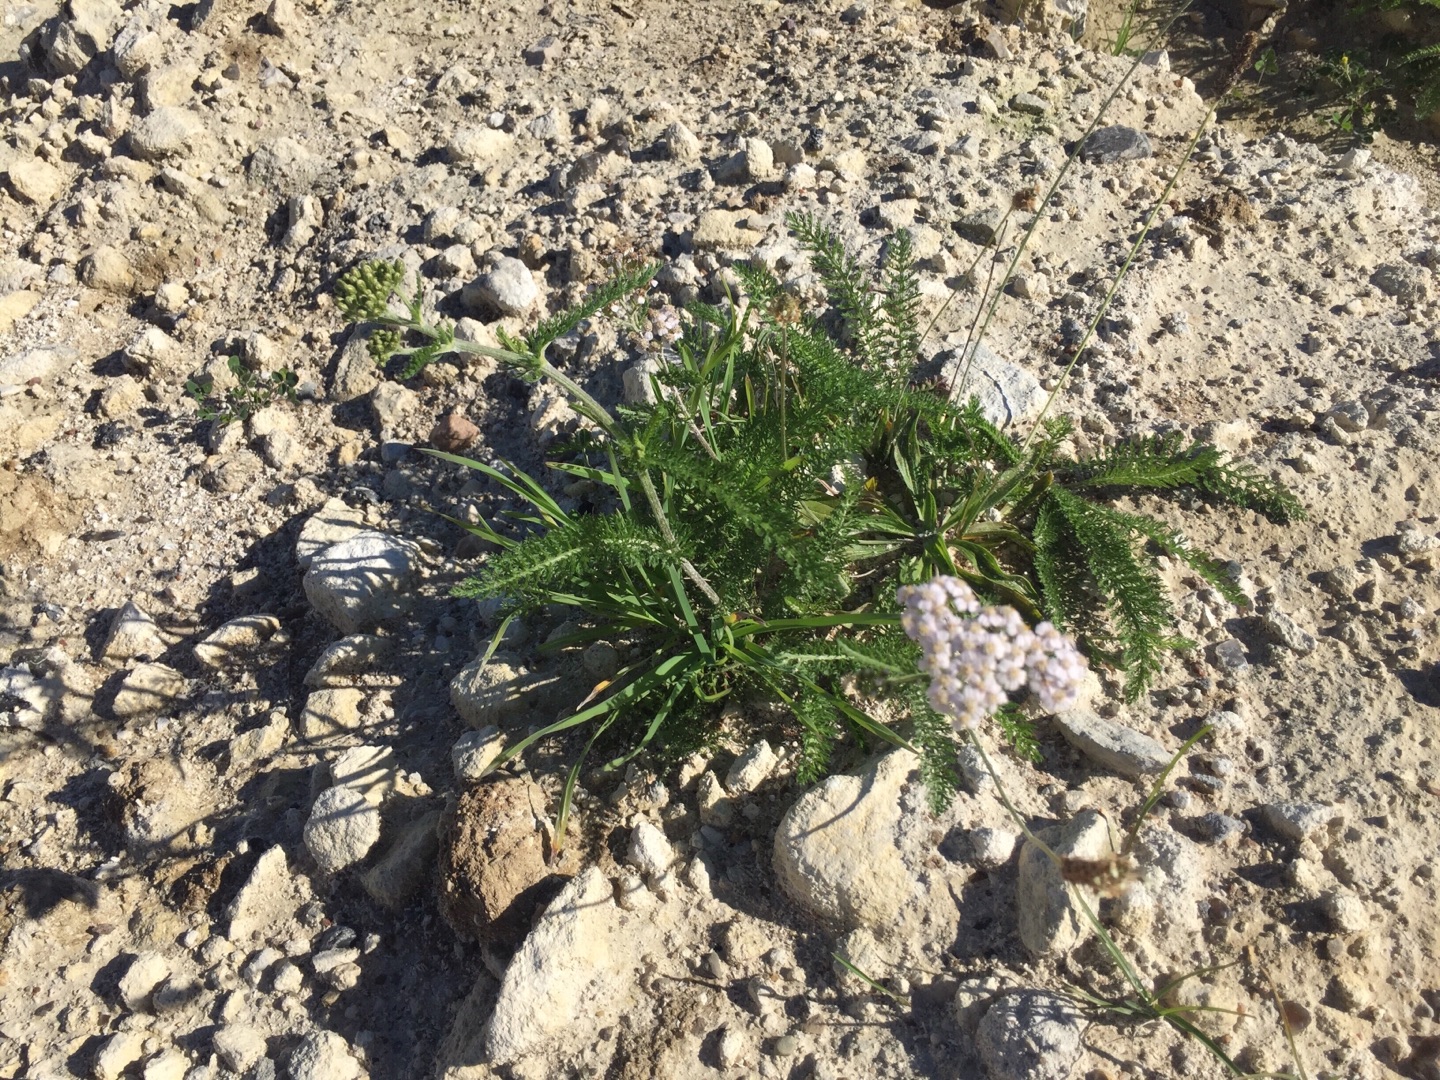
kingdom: Plantae
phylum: Tracheophyta
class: Magnoliopsida
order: Asterales
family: Asteraceae
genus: Achillea
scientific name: Achillea millefolium
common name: Almindelig røllike
